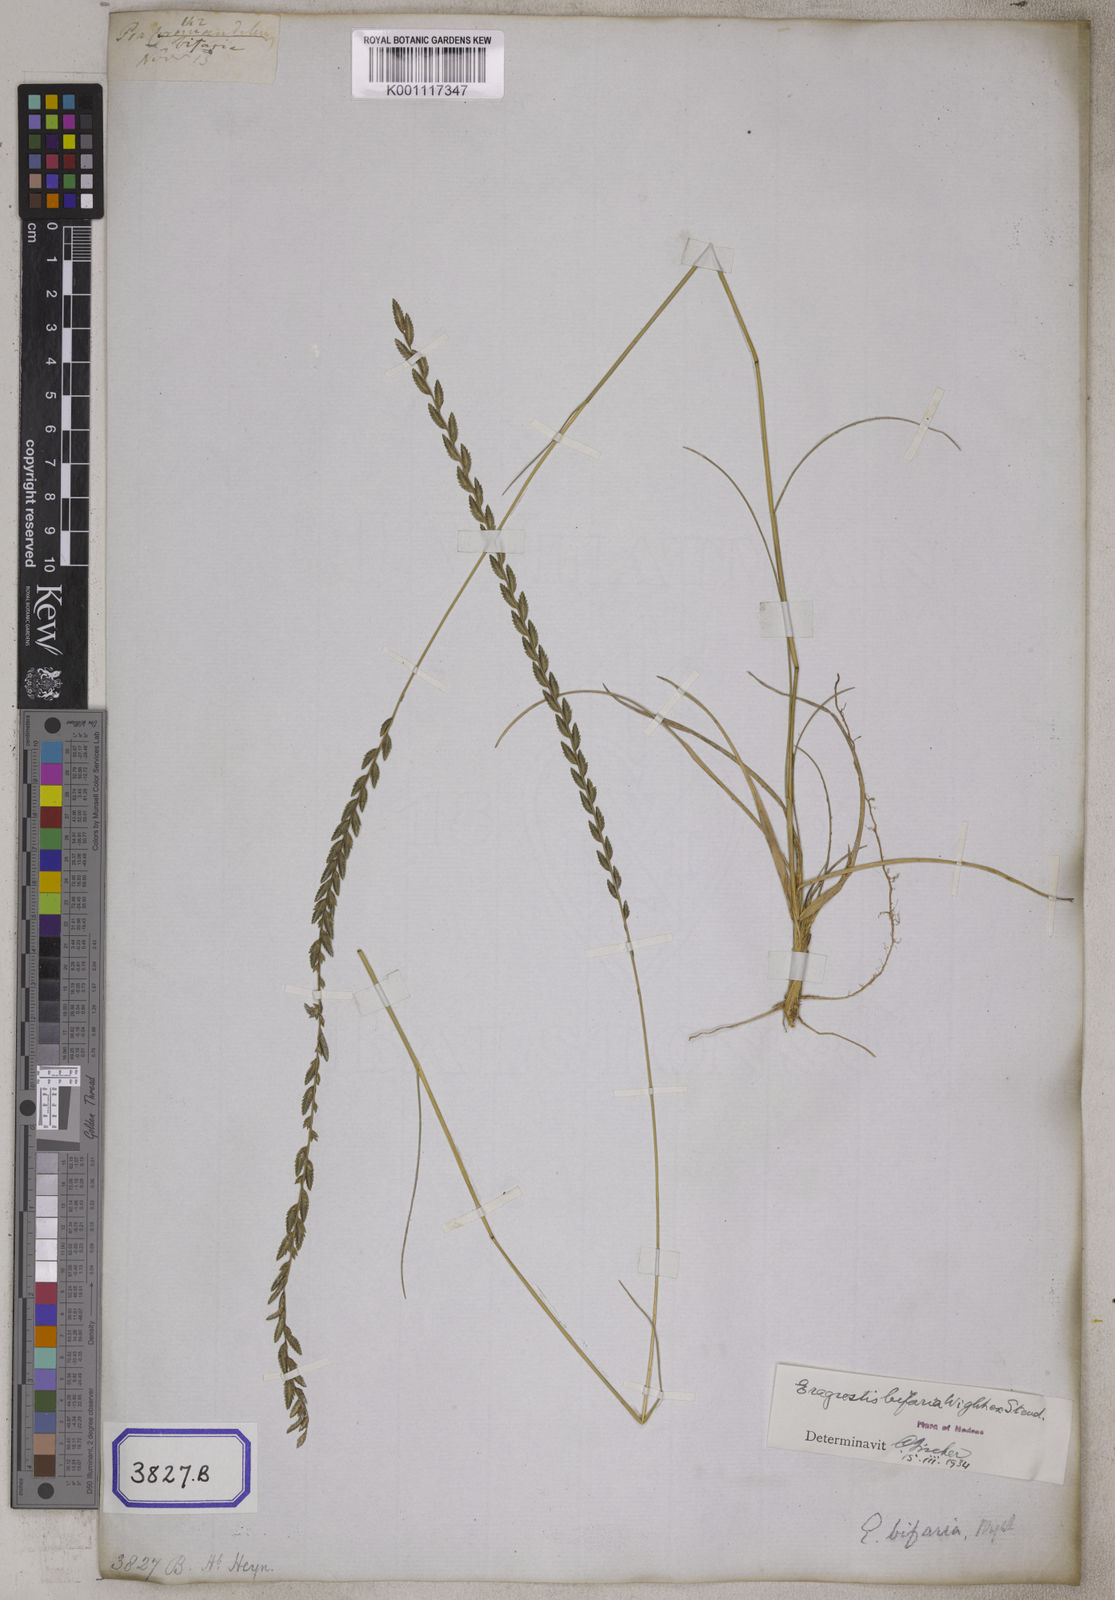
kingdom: Plantae
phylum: Tracheophyta
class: Liliopsida
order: Poales
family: Poaceae
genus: Eragrostis
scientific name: Eragrostis
